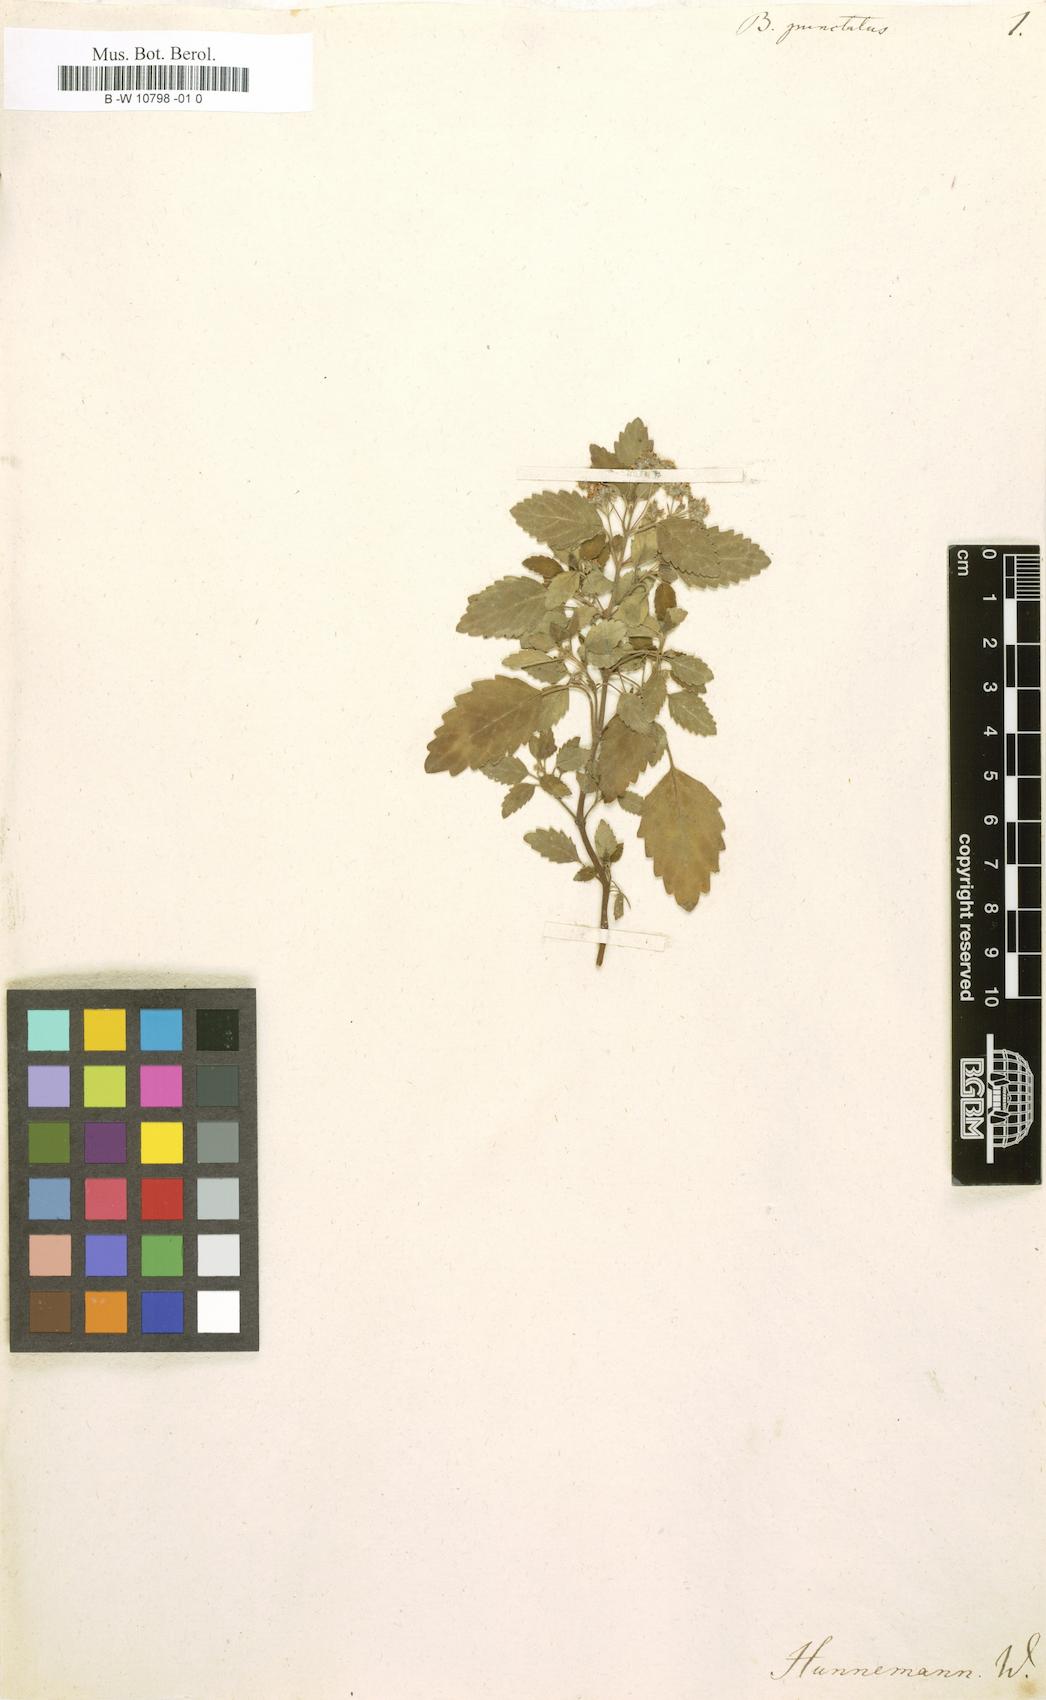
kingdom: Plantae
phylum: Tracheophyta
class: Magnoliopsida
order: Lamiales
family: Lamiaceae
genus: Bystropogon
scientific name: Bystropogon punctatus
